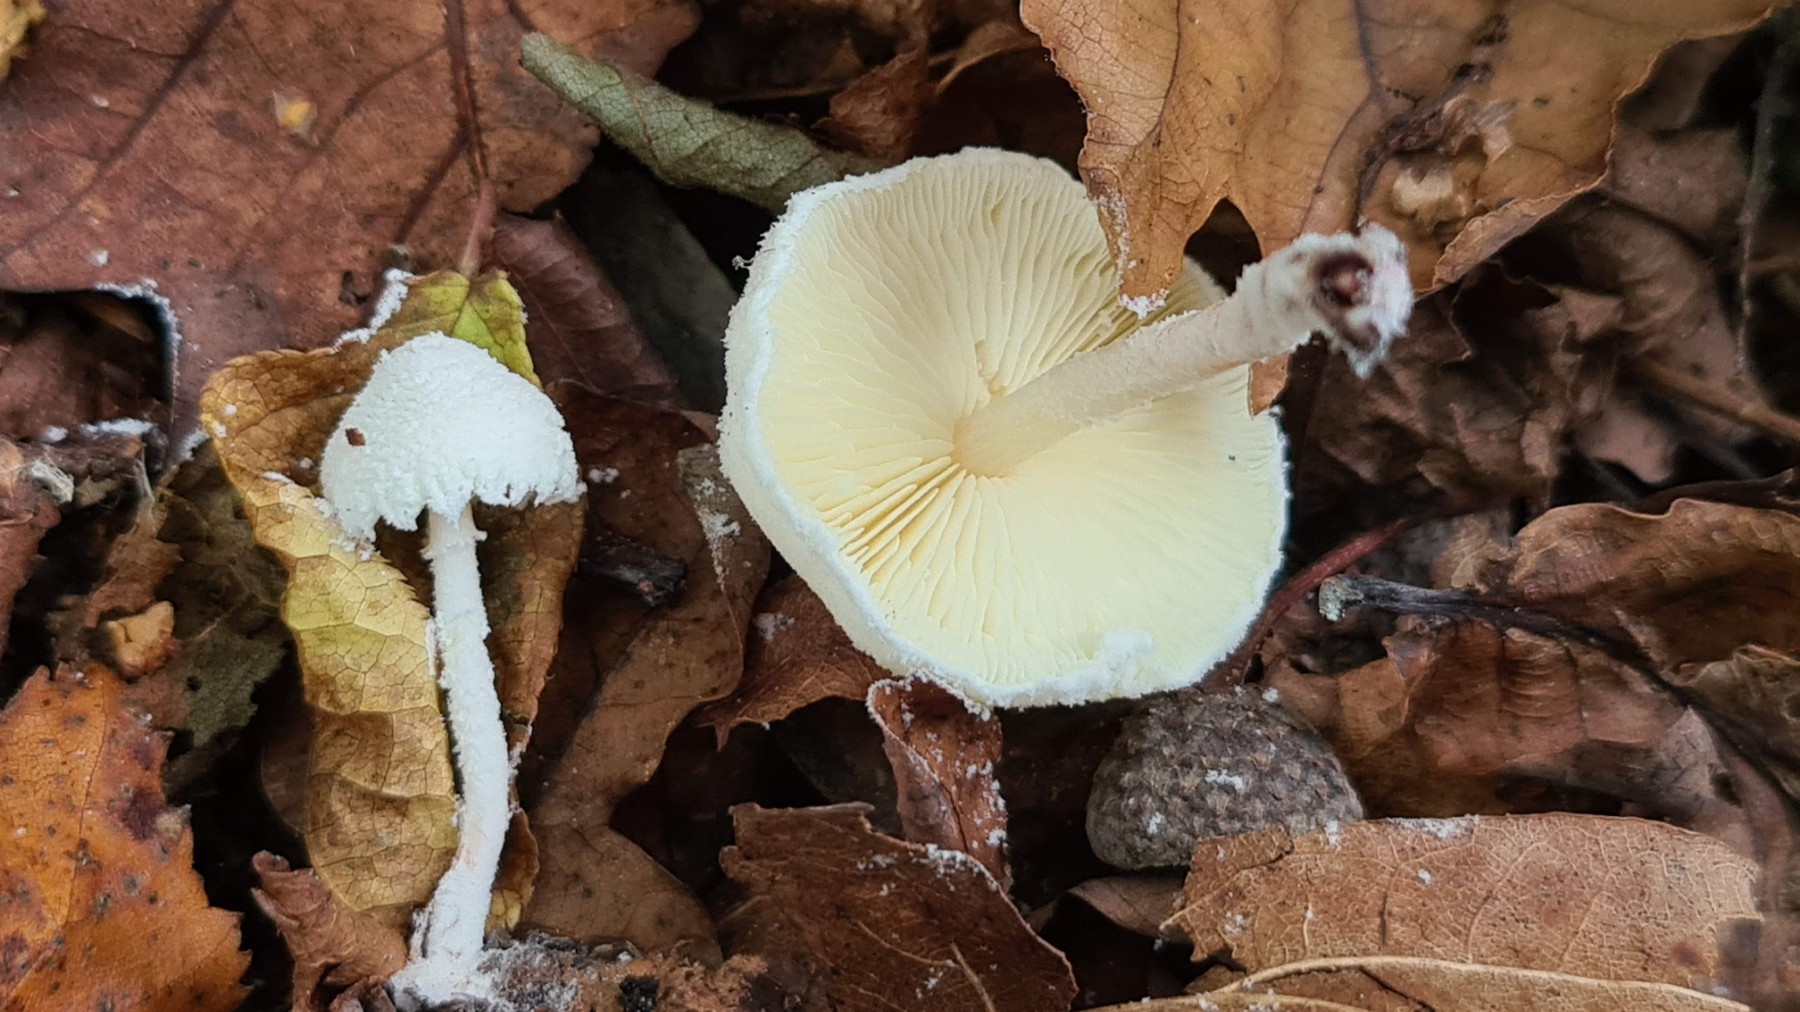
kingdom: Fungi
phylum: Basidiomycota
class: Agaricomycetes
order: Agaricales
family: Agaricaceae
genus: Cystolepiota
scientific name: Cystolepiota seminuda
